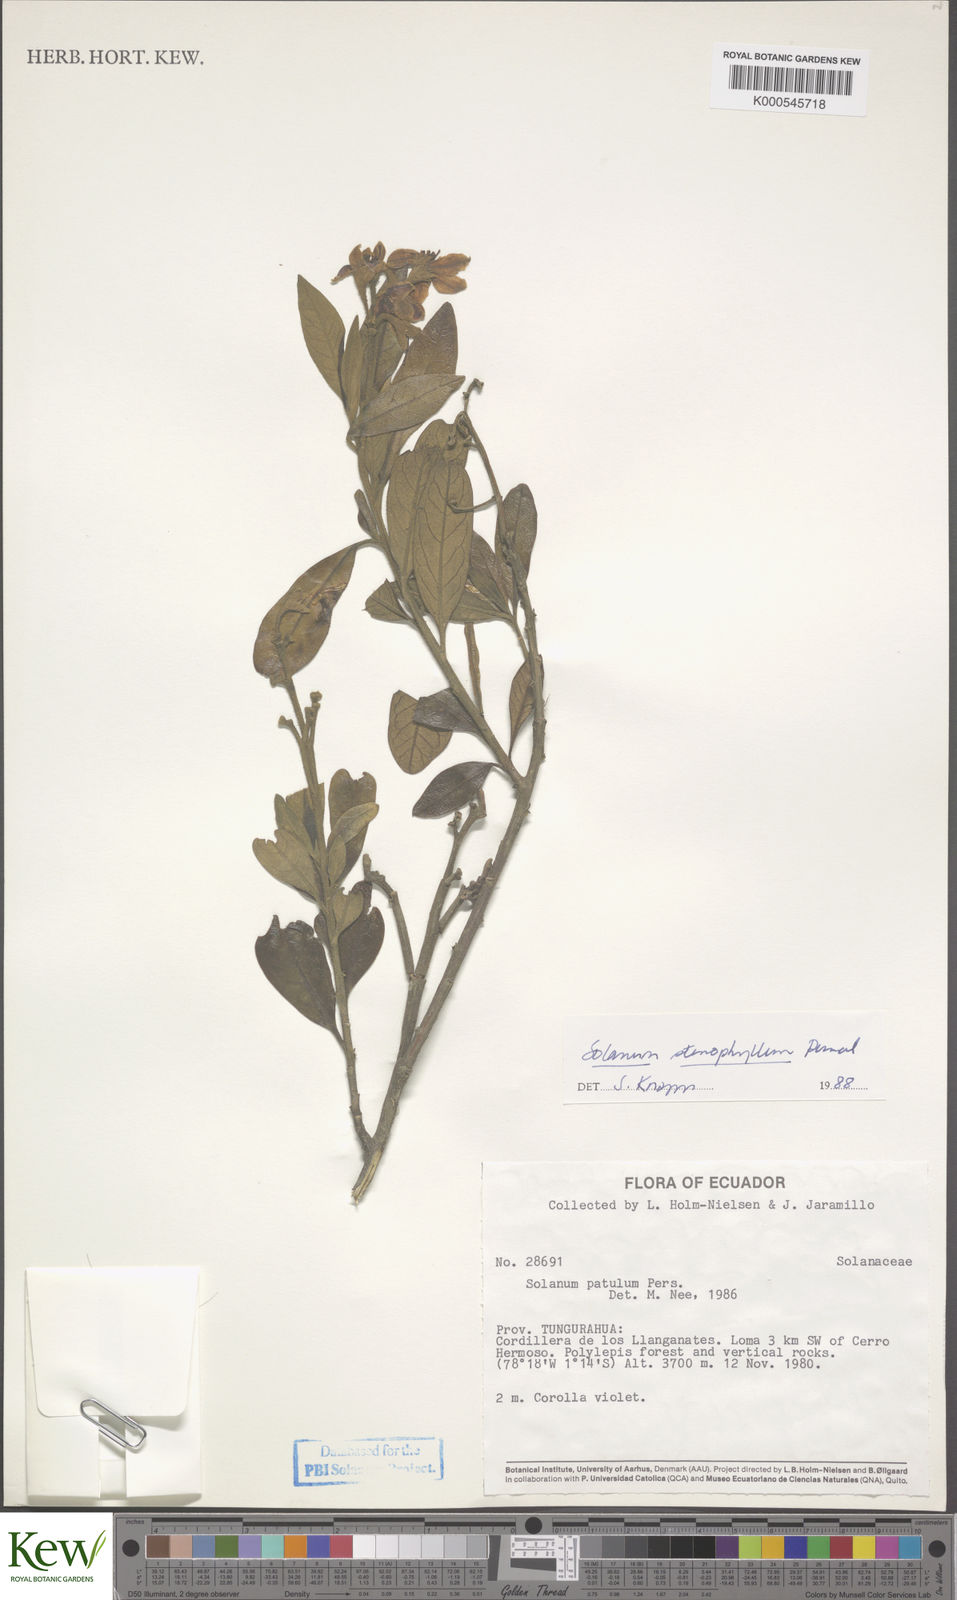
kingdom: Plantae
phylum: Tracheophyta
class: Magnoliopsida
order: Solanales
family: Solanaceae
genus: Solanum
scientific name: Solanum stenophyllum
